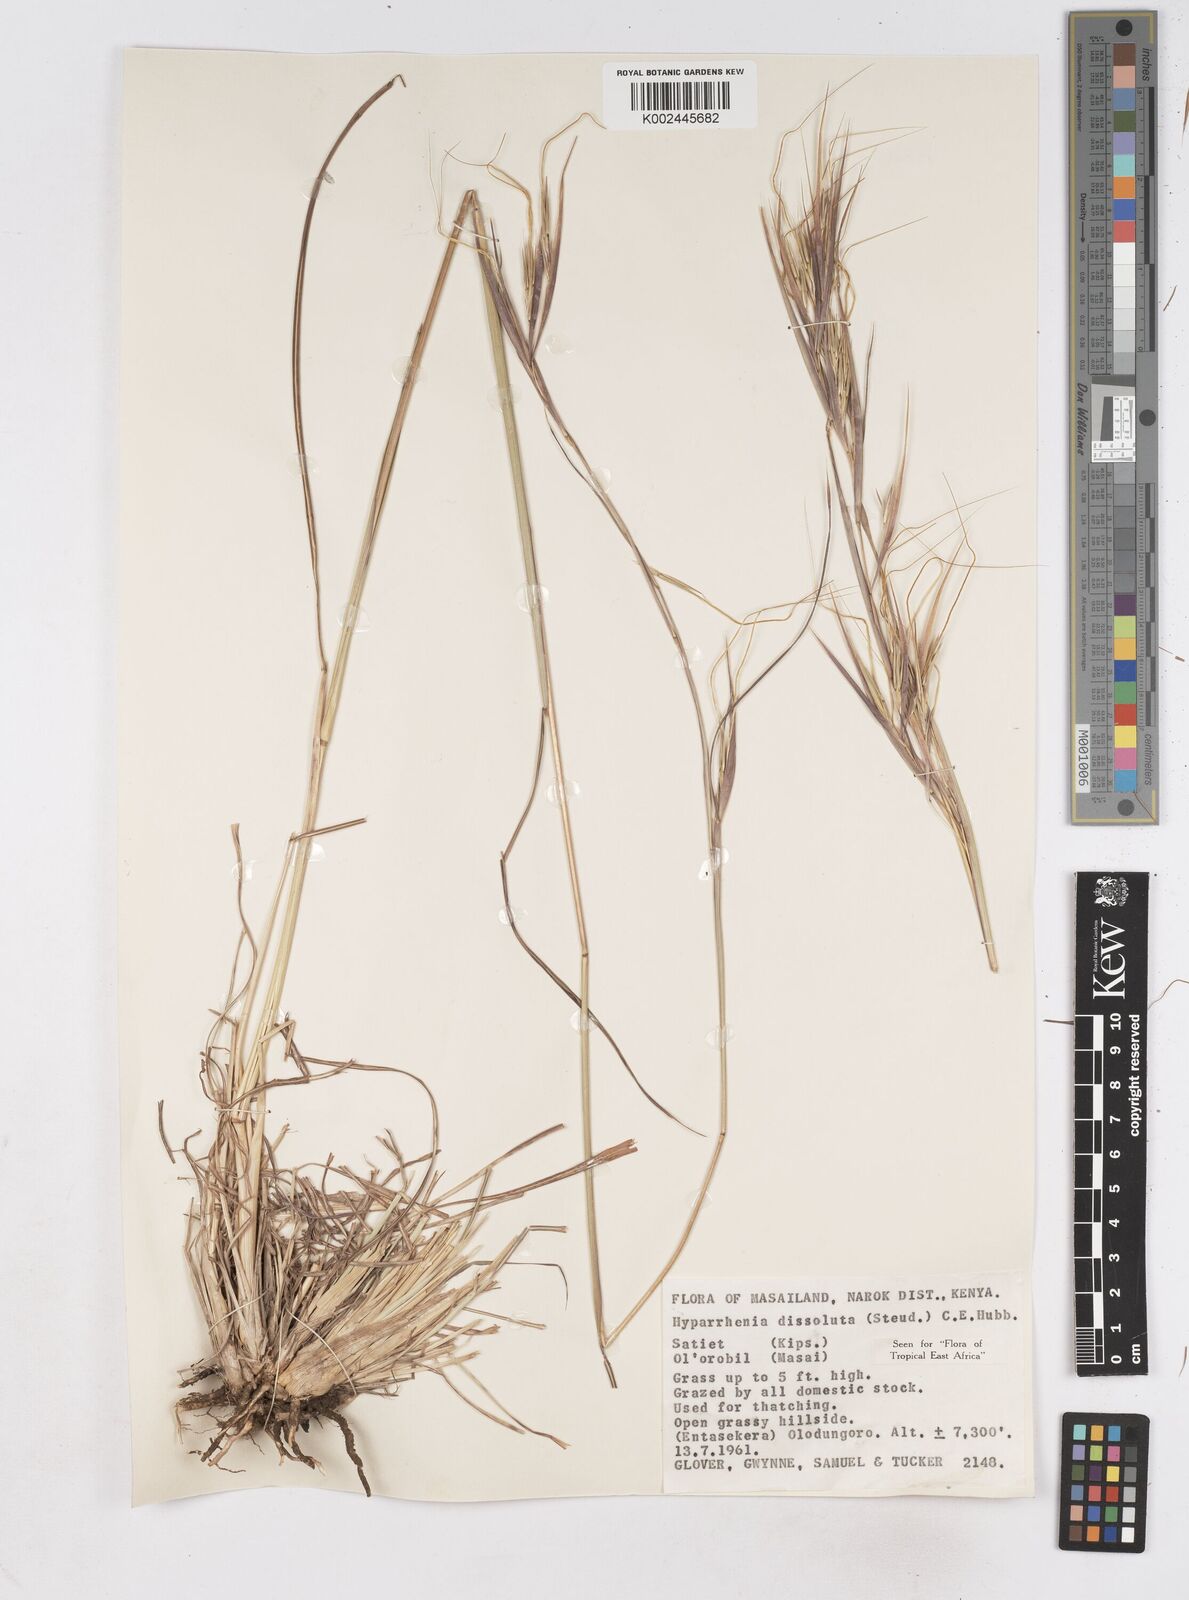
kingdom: Plantae
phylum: Tracheophyta
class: Liliopsida
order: Poales
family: Poaceae
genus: Hyperthelia
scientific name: Hyperthelia dissoluta
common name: Yellow thatching grass
